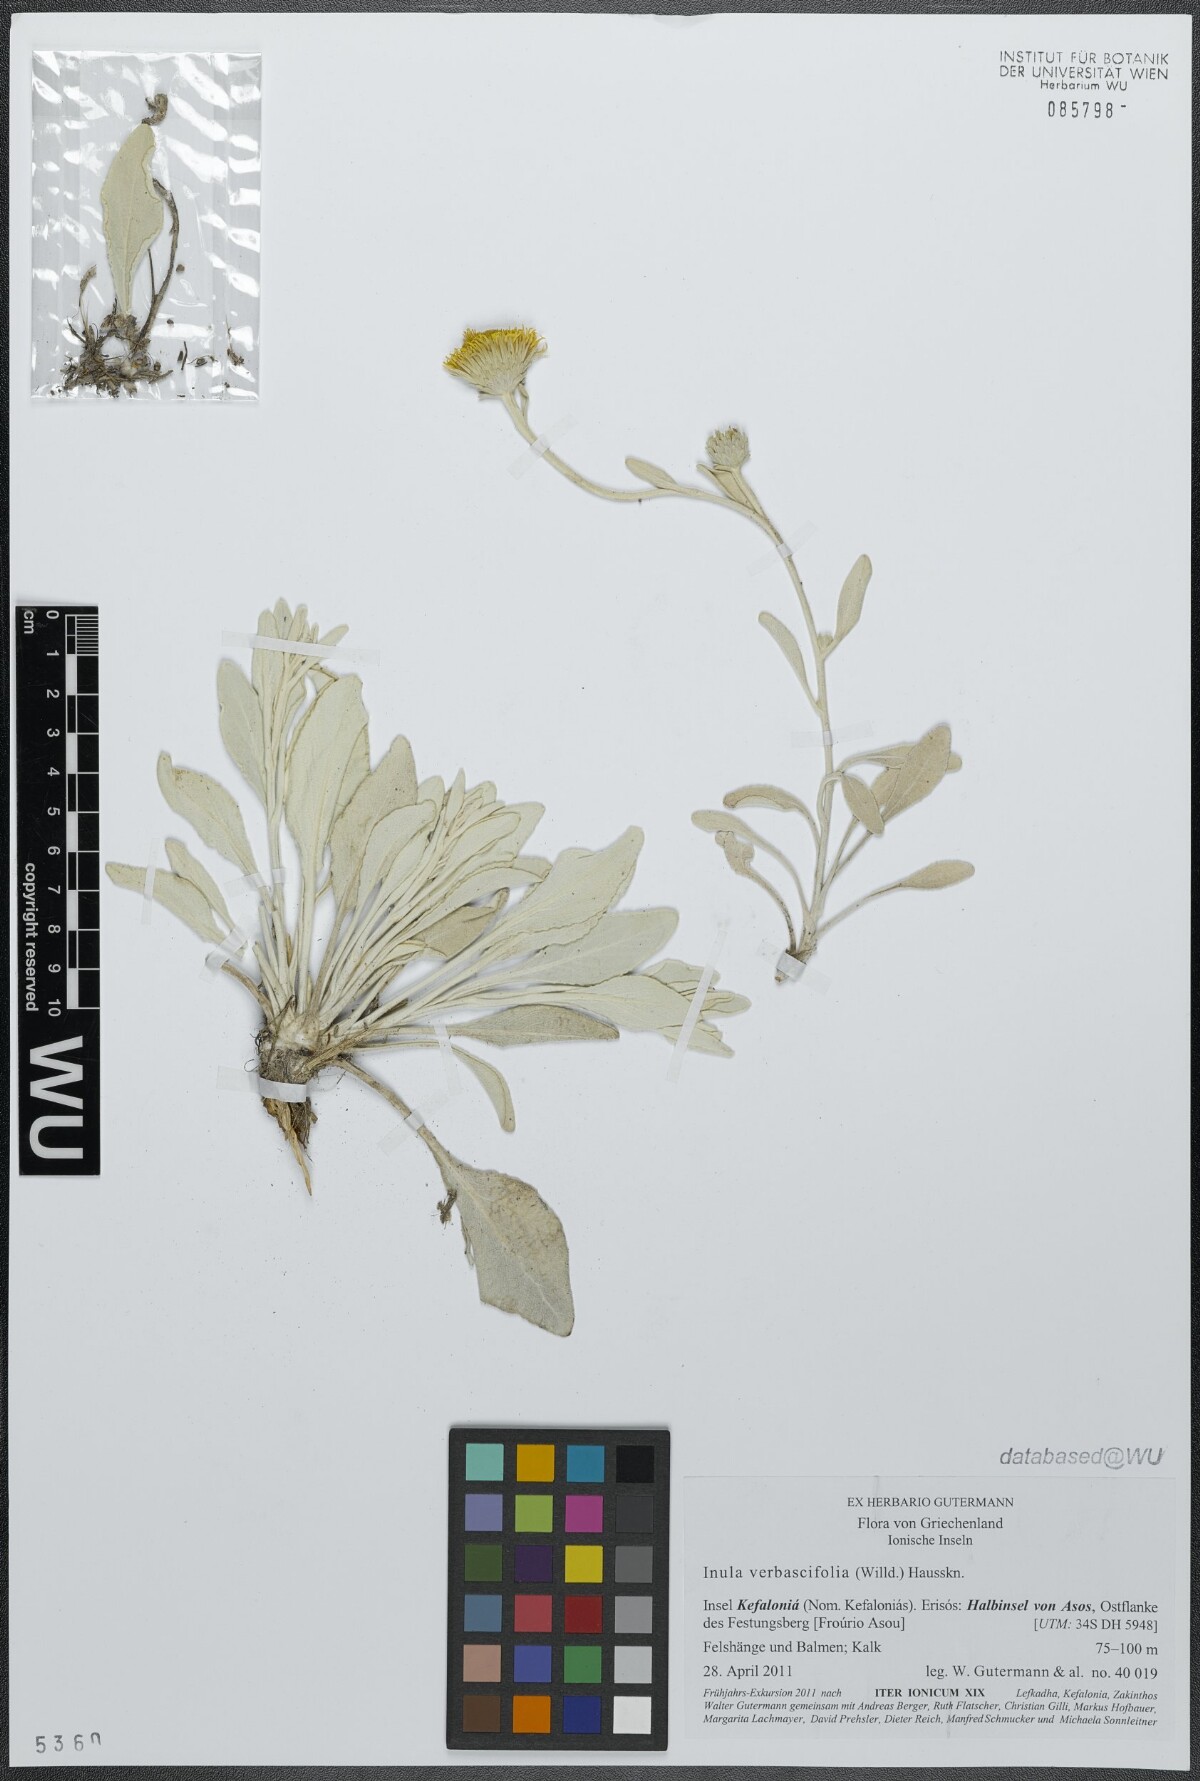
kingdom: Plantae
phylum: Tracheophyta
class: Magnoliopsida
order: Asterales
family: Asteraceae
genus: Pentanema
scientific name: Pentanema verbascifolium
